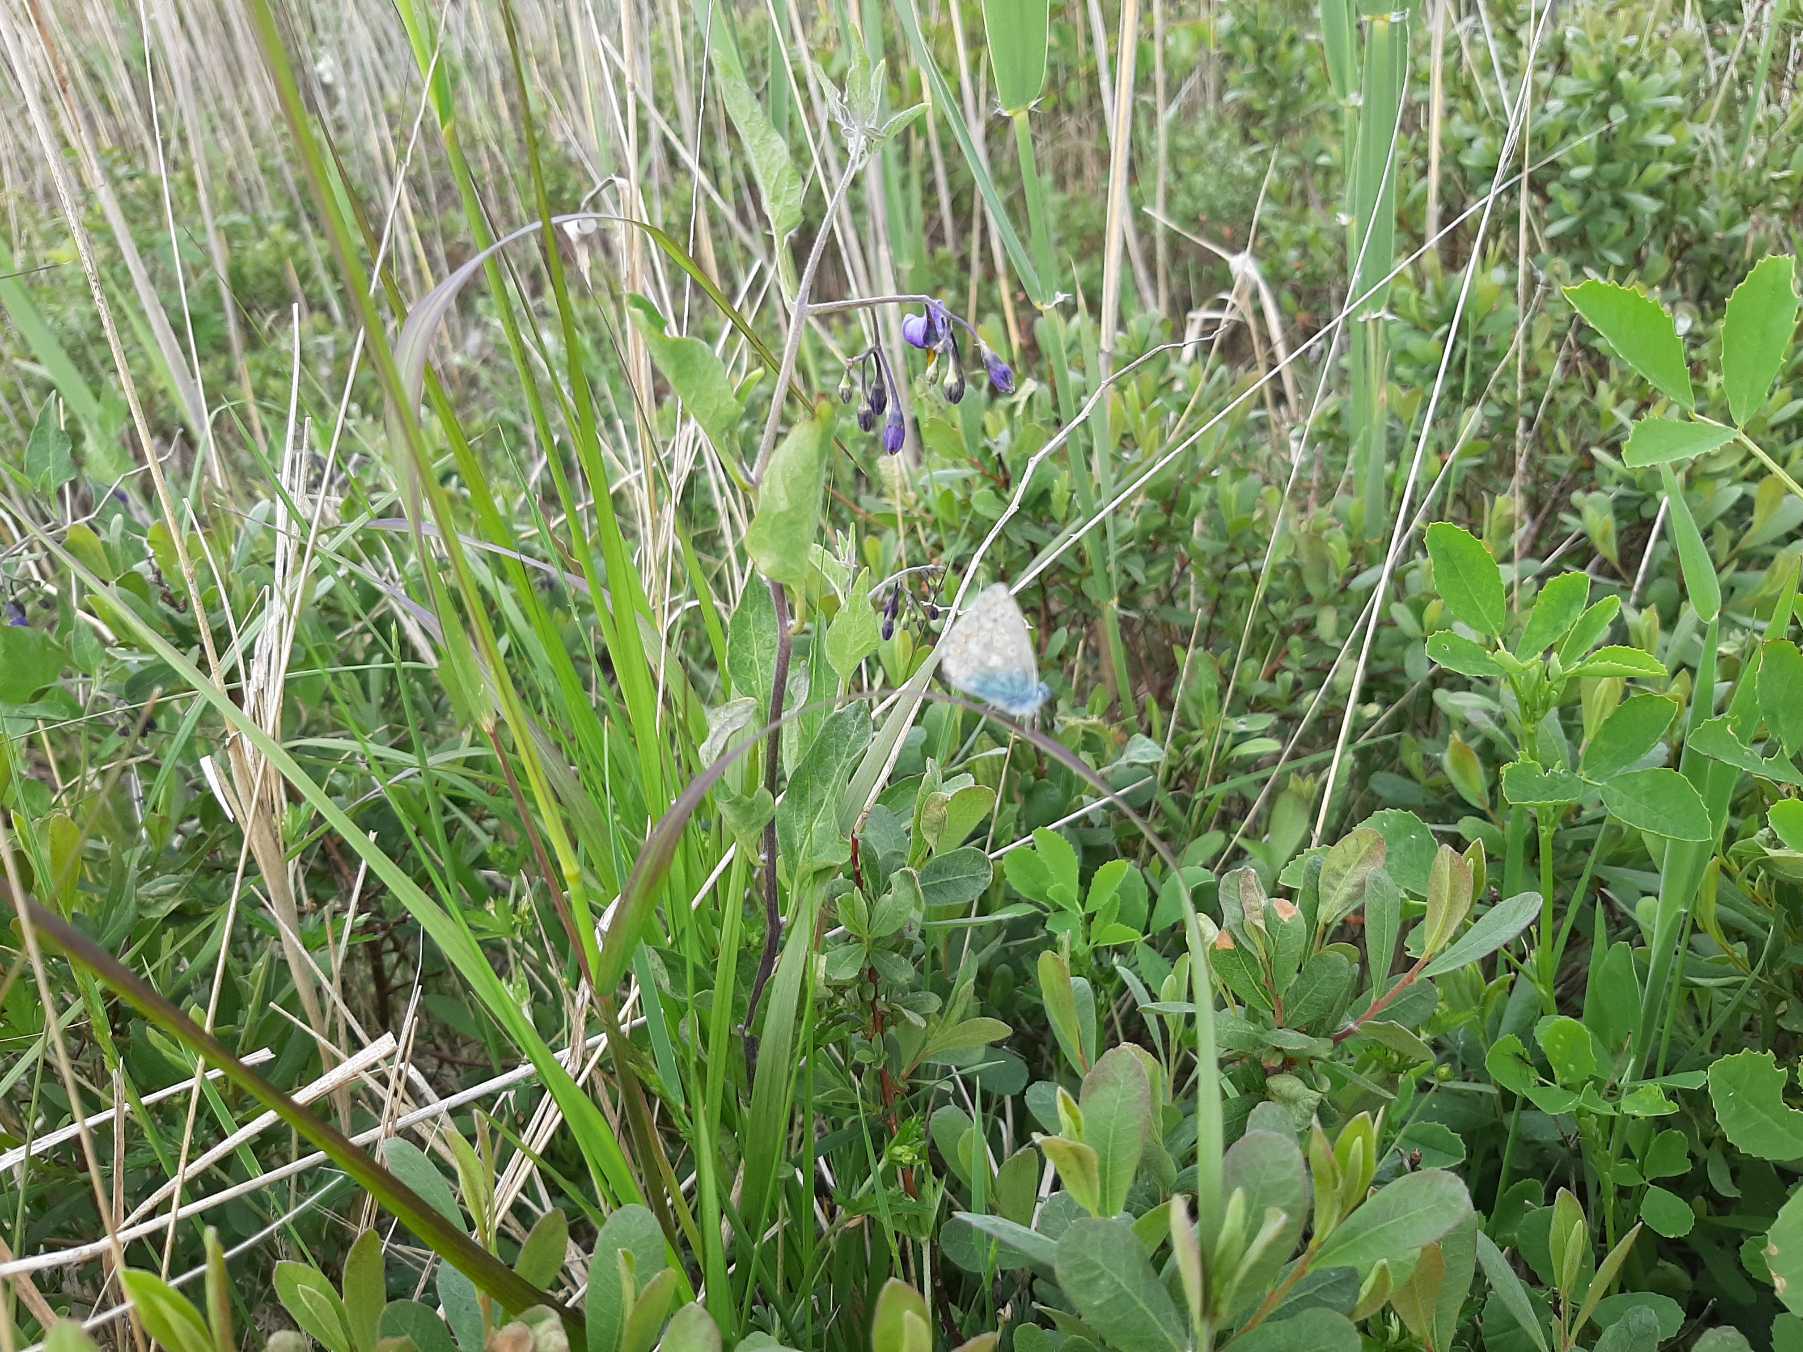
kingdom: Animalia
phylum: Arthropoda
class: Insecta
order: Lepidoptera
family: Lycaenidae
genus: Polyommatus
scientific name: Polyommatus icarus
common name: Almindelig blåfugl
